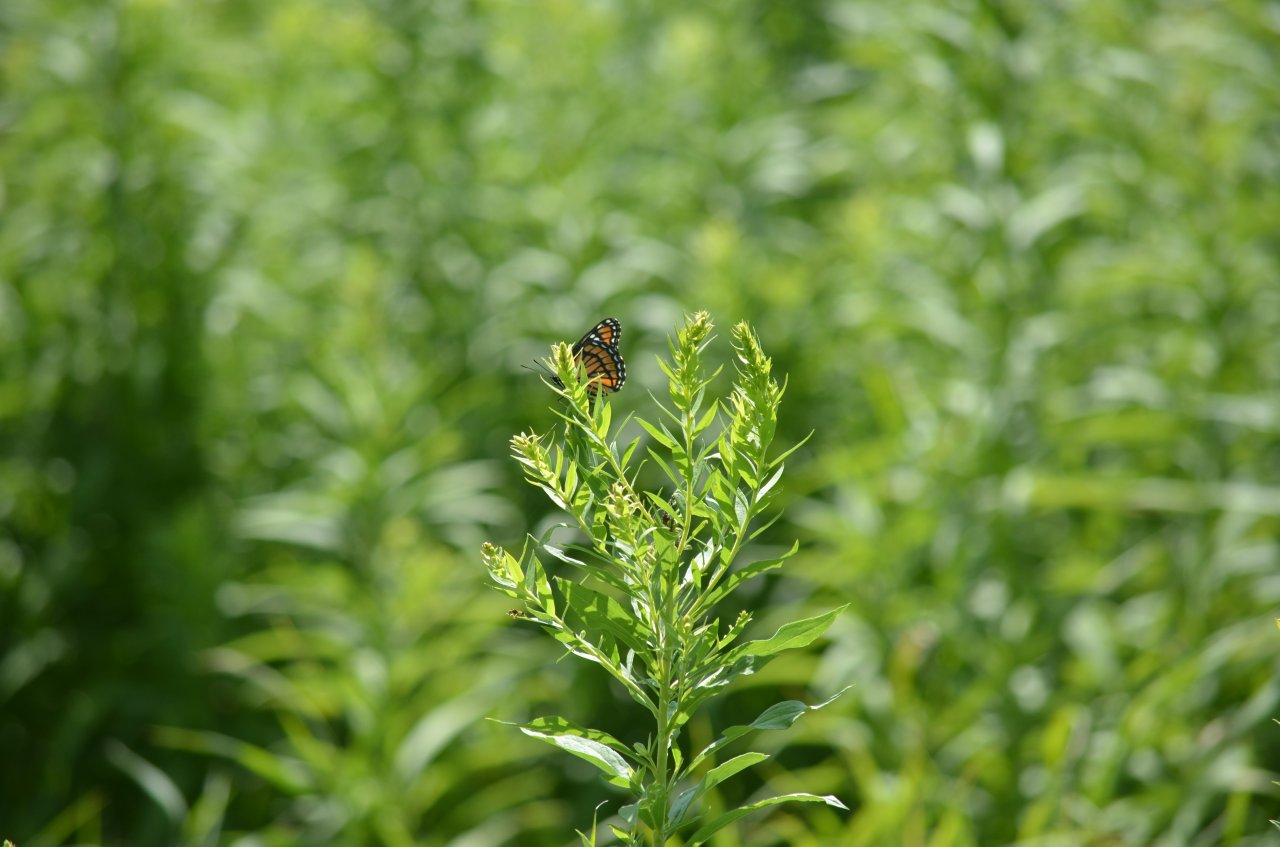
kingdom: Animalia
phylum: Arthropoda
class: Insecta
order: Lepidoptera
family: Nymphalidae
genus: Limenitis
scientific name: Limenitis archippus
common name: Viceroy
